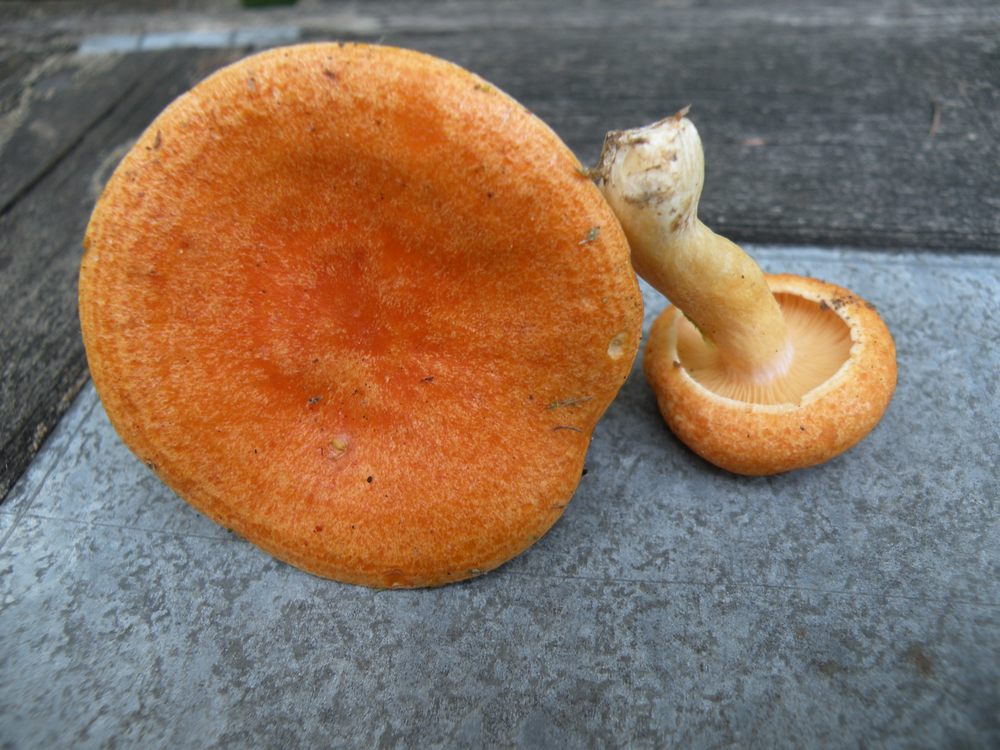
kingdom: Fungi
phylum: Basidiomycota
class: Agaricomycetes
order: Russulales
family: Russulaceae
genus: Lactarius
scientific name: Lactarius porninsis
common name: lærke-mælkehat
